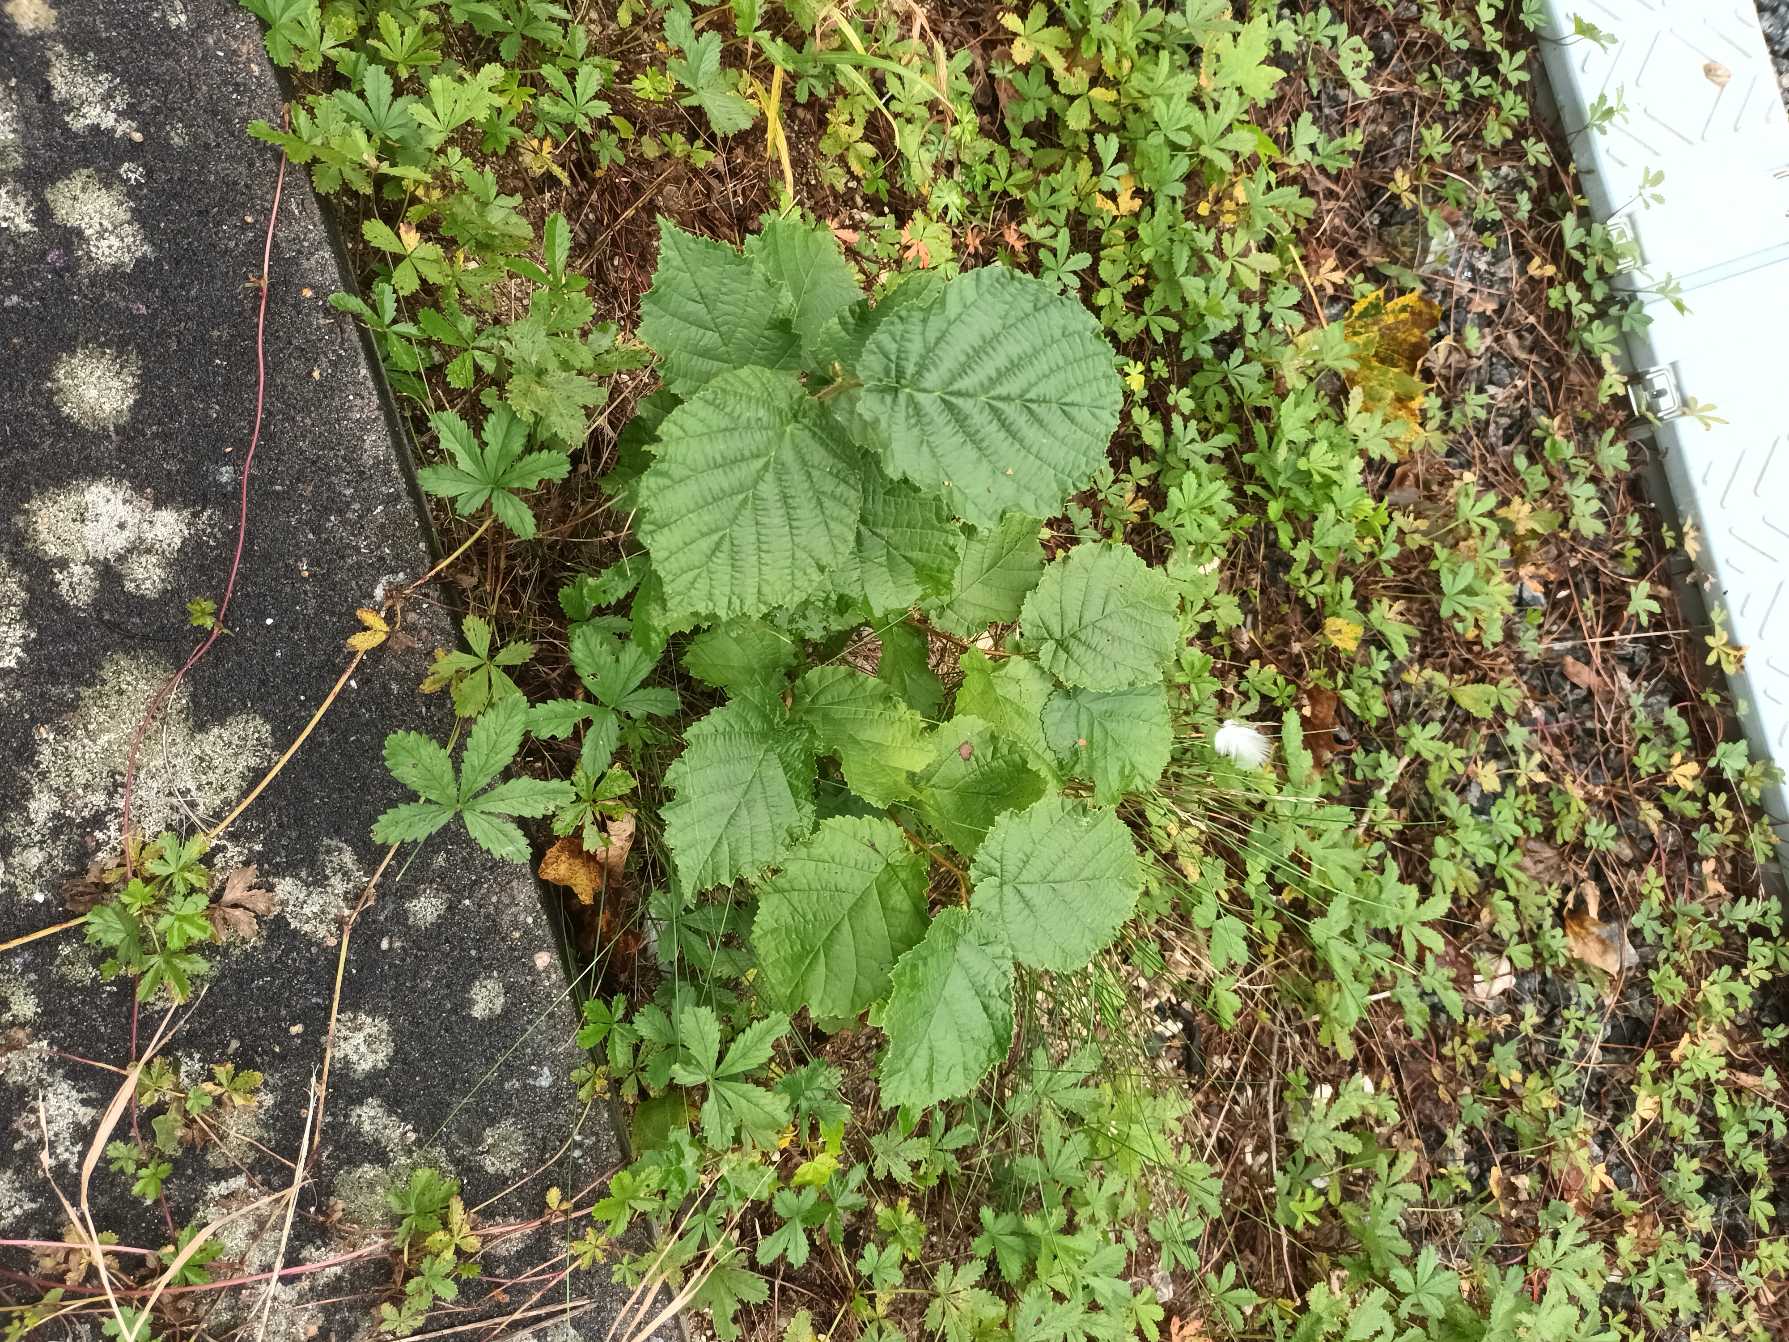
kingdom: Plantae
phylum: Tracheophyta
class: Magnoliopsida
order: Fagales
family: Betulaceae
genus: Corylus
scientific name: Corylus avellana
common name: Hassel
